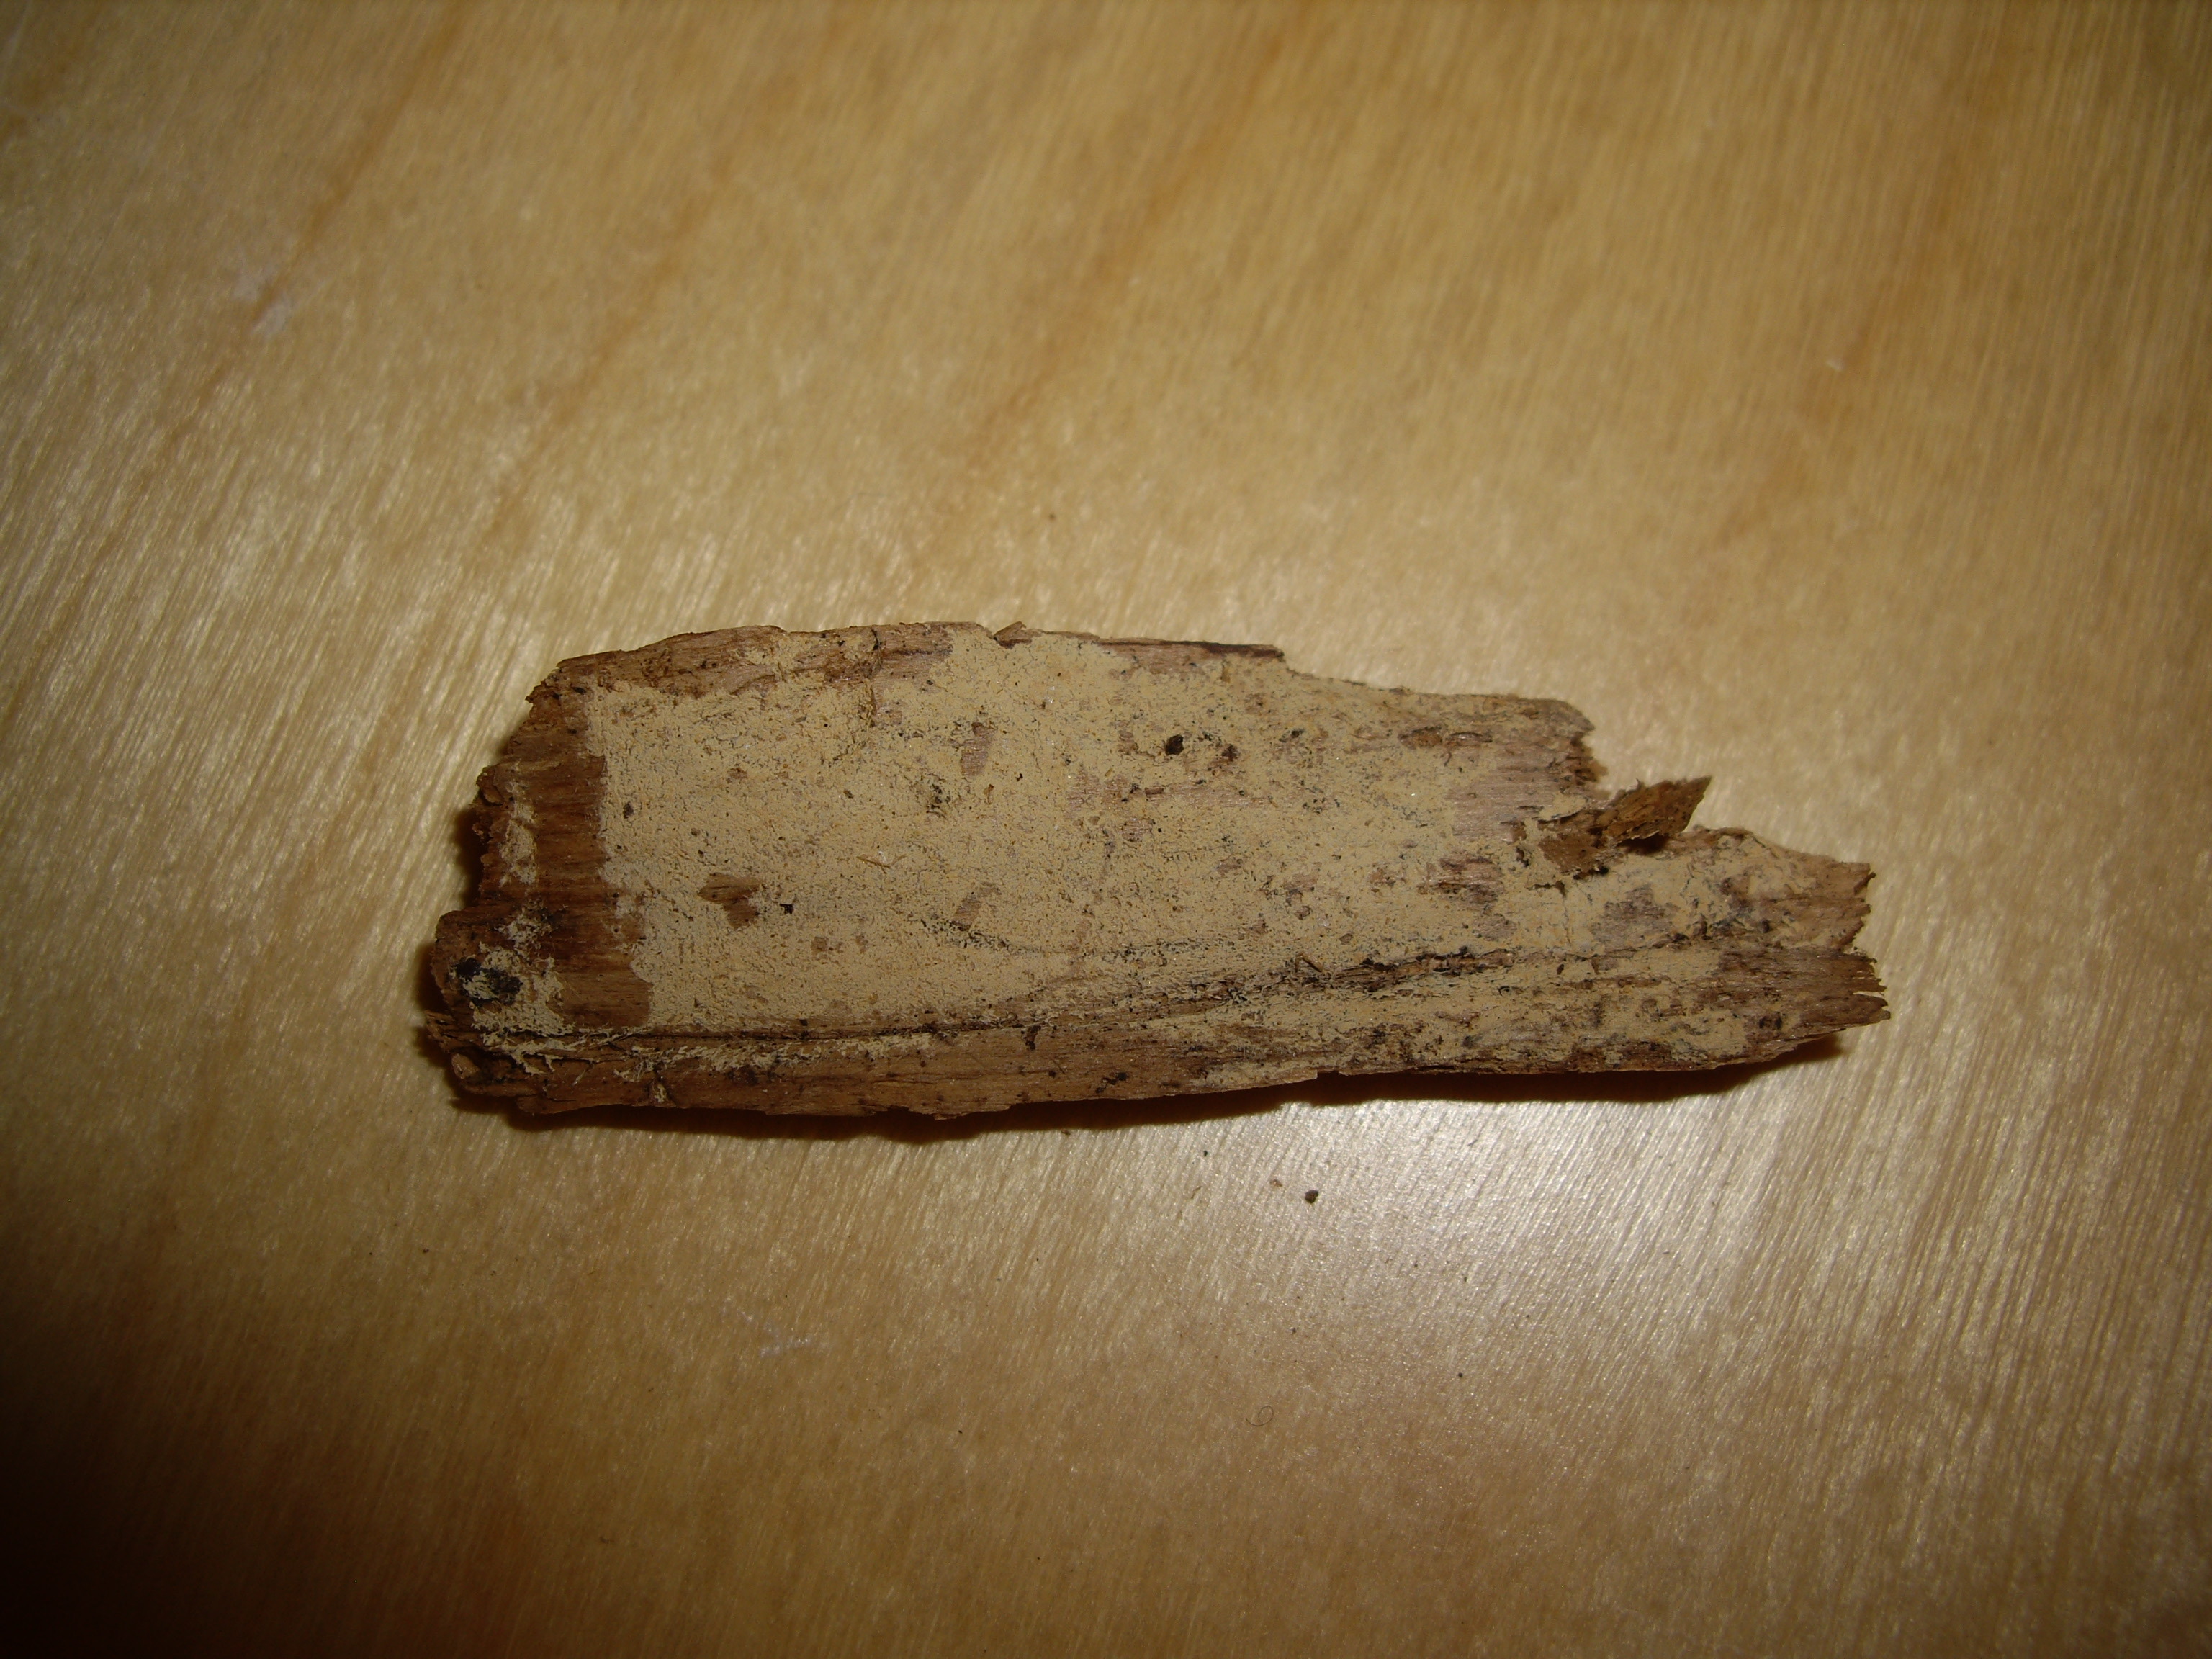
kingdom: Fungi
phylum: Basidiomycota
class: Agaricomycetes
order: Agaricales
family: Stephanosporaceae
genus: Cristinia
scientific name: Cristinia helvetica
